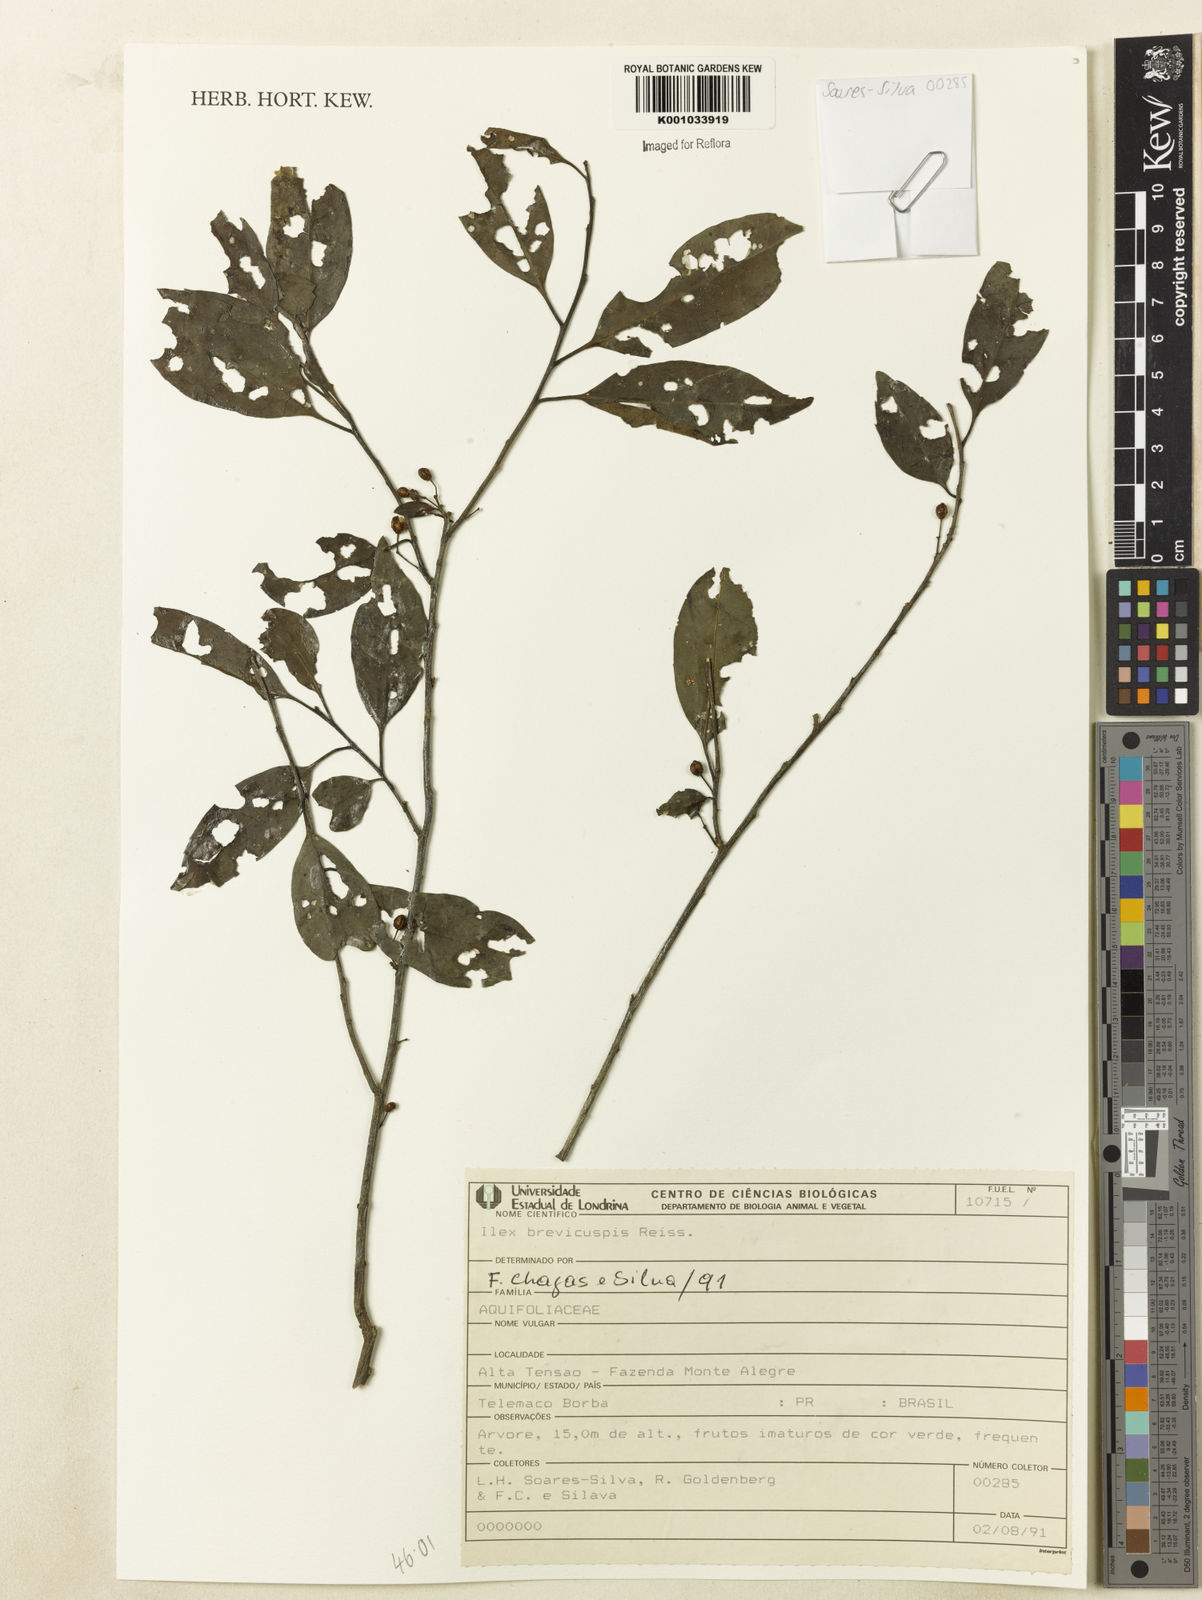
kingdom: Plantae
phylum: Tracheophyta
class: Magnoliopsida
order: Aquifoliales
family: Aquifoliaceae
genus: Ilex
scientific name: Ilex brevicuspis
